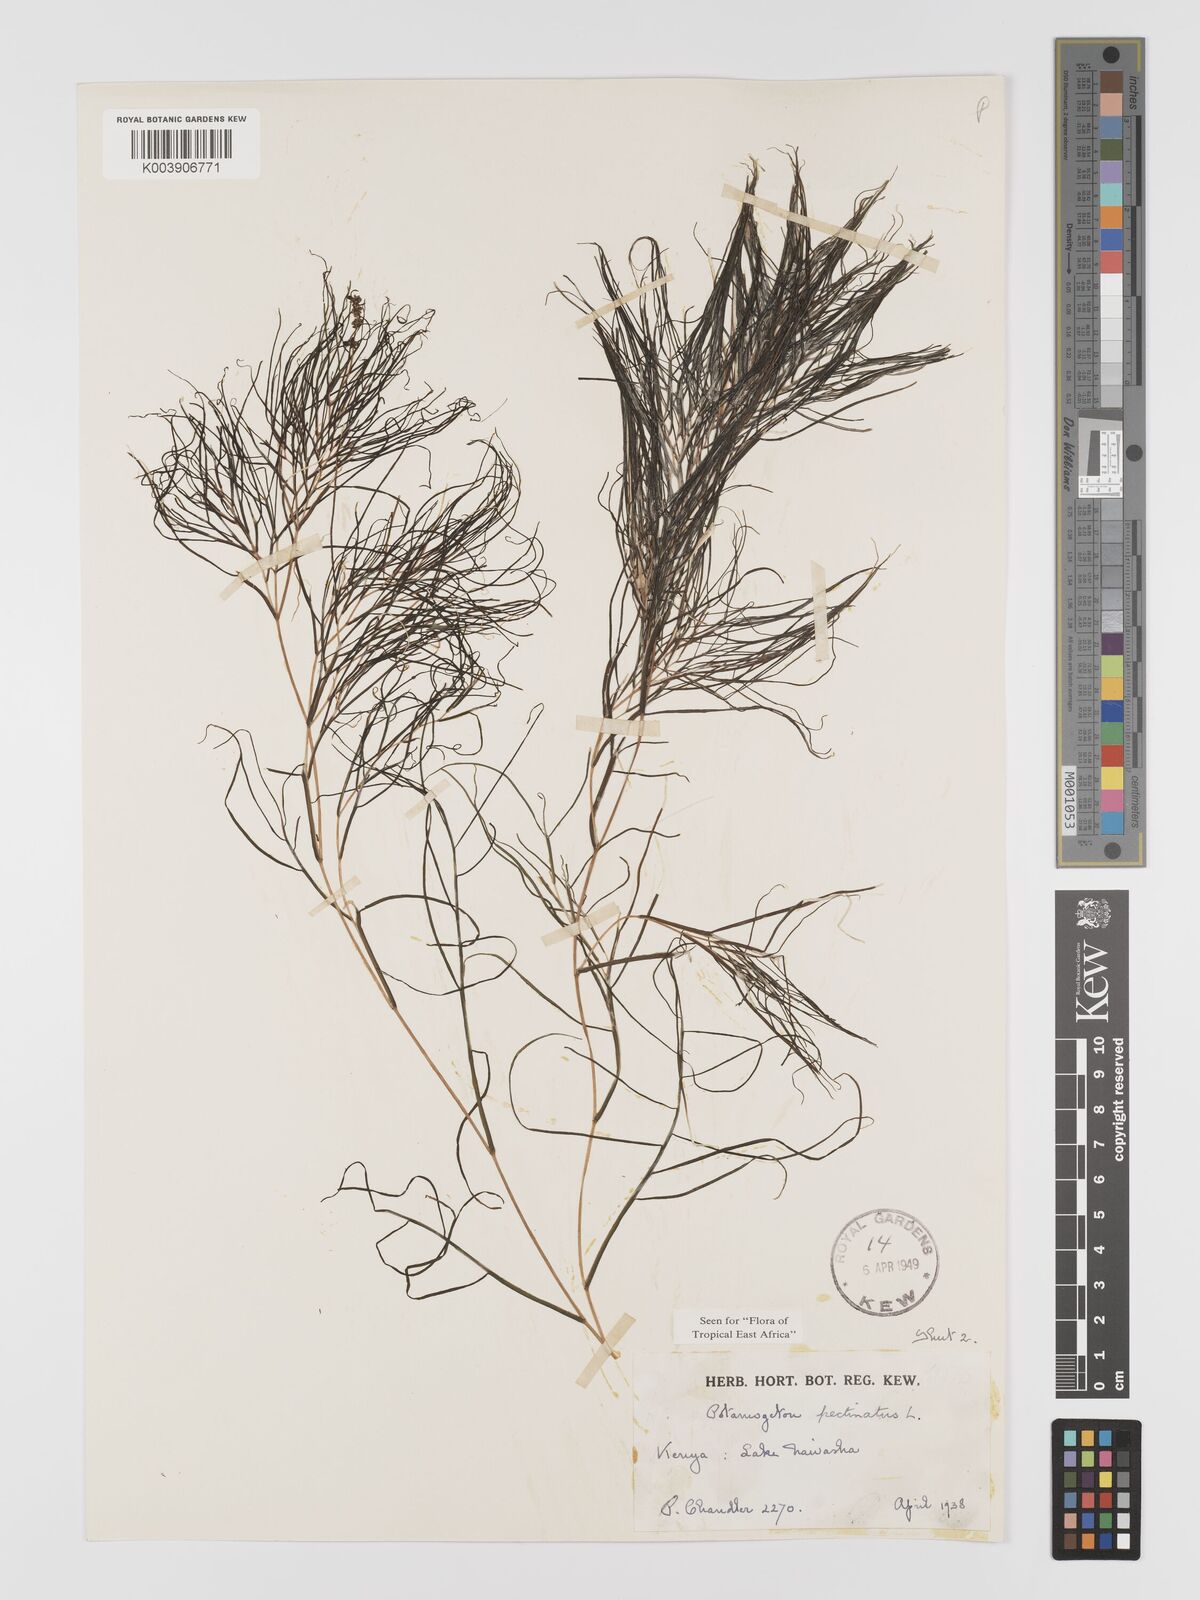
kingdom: Plantae
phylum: Tracheophyta
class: Liliopsida
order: Alismatales
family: Potamogetonaceae
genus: Stuckenia
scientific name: Stuckenia pectinata
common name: Sago pondweed
